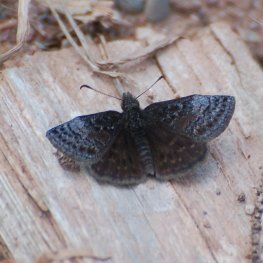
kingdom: Animalia
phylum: Arthropoda
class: Insecta
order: Lepidoptera
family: Hesperiidae
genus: Erynnis
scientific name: Erynnis icelus
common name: Dreamy Duskywing
